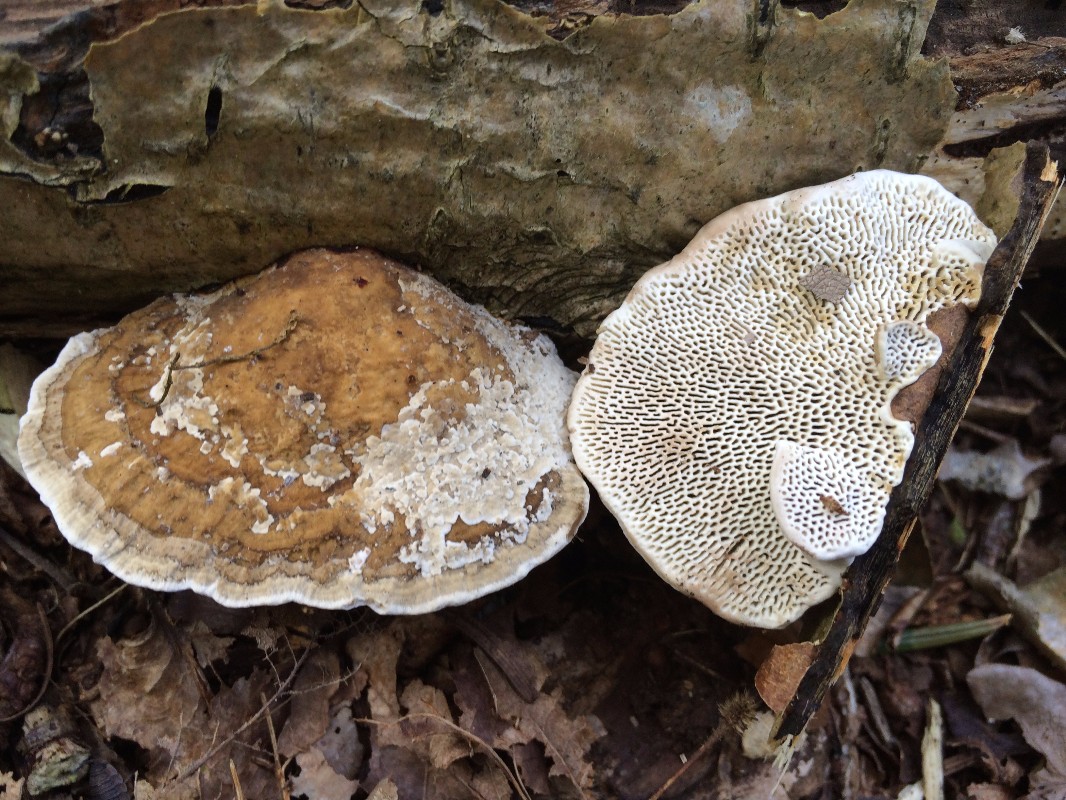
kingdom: Fungi
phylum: Basidiomycota
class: Agaricomycetes
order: Polyporales
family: Polyporaceae
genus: Daedaleopsis
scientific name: Daedaleopsis confragosa
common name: rødmende læderporesvamp
